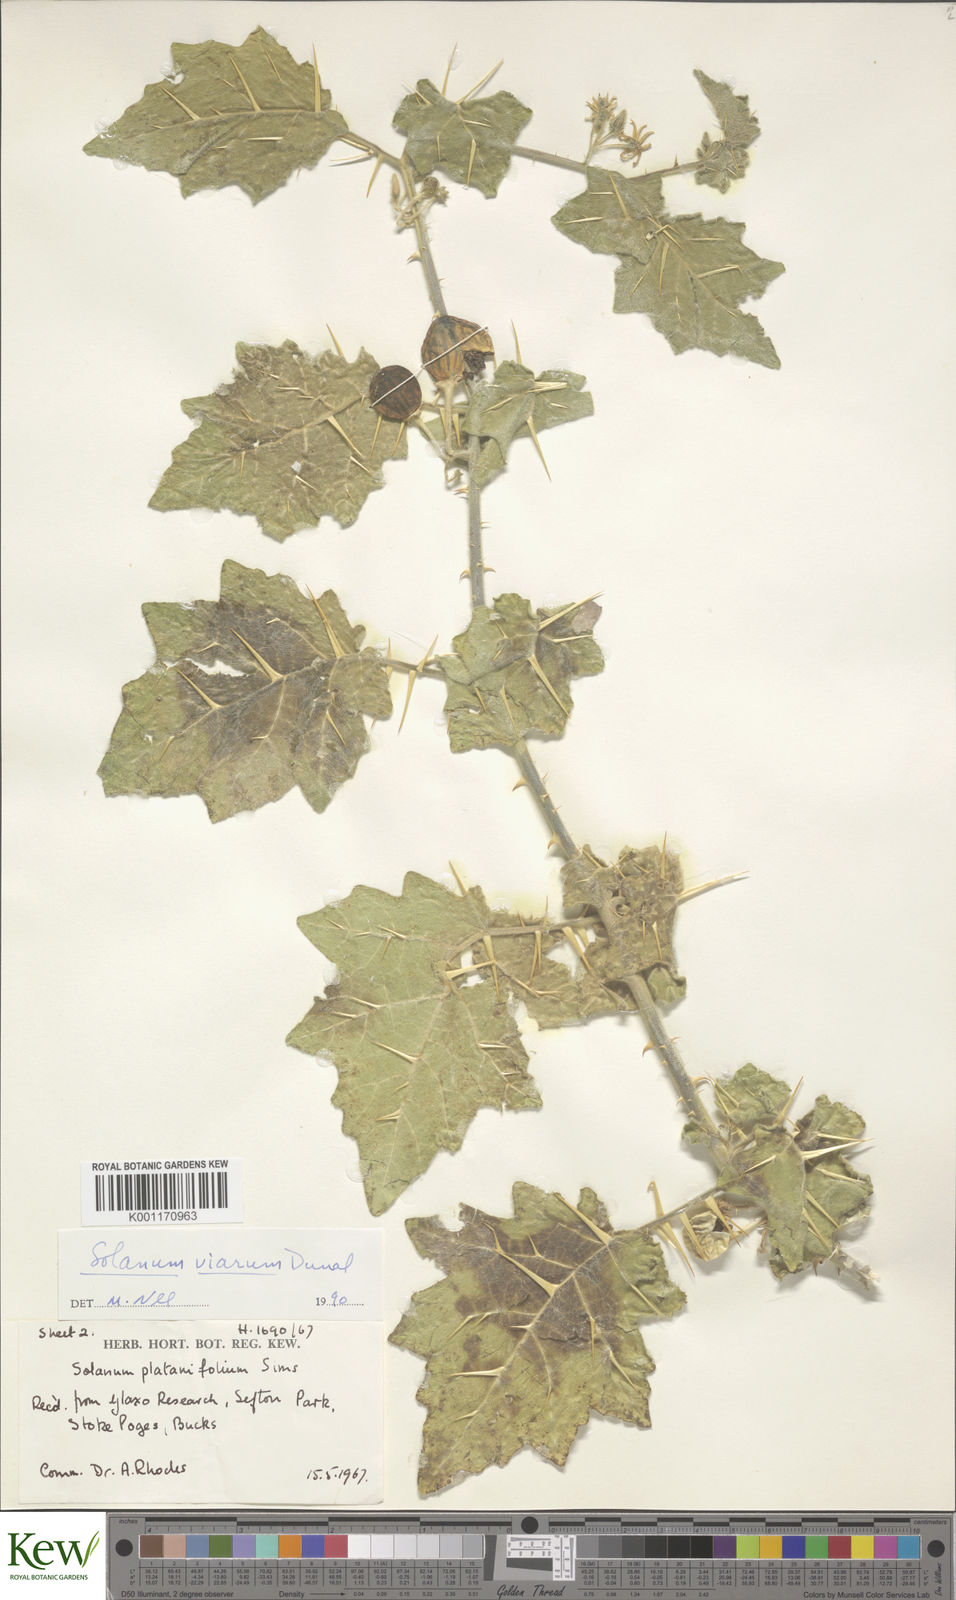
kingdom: Plantae
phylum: Tracheophyta
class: Magnoliopsida
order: Solanales
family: Solanaceae
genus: Solanum
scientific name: Solanum viarum
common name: Tropical soda apple
